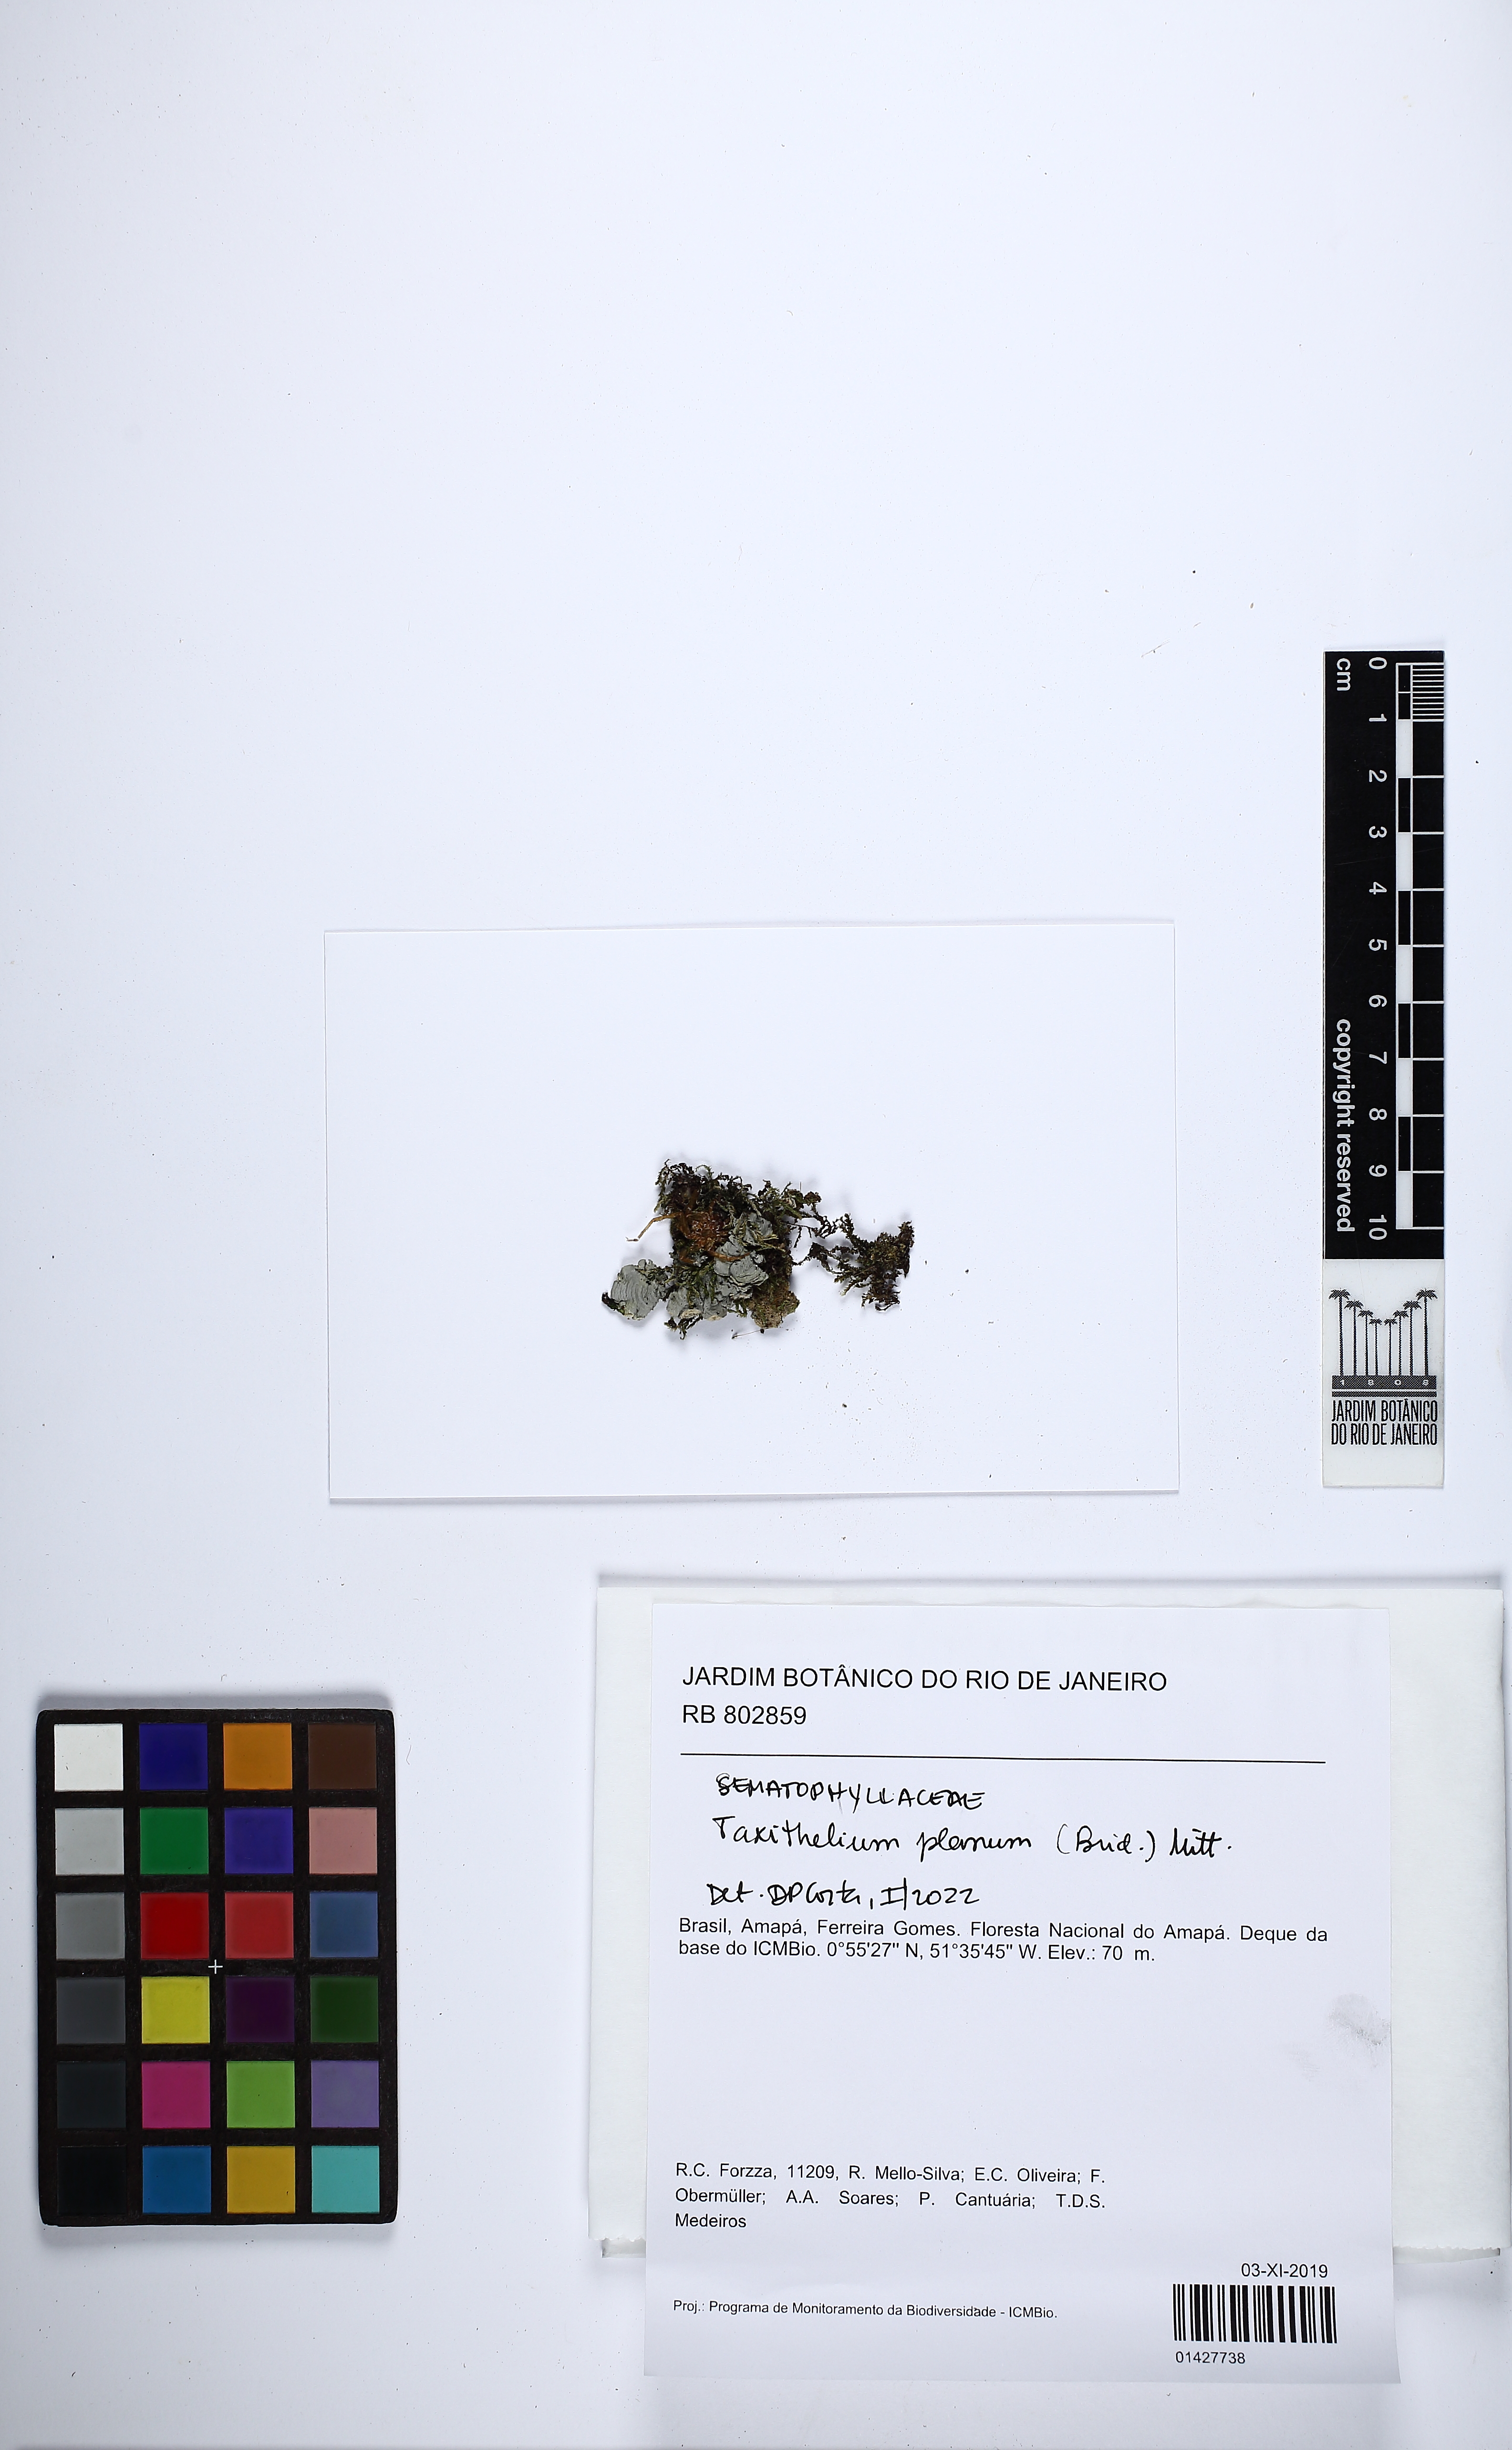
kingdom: Plantae
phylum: Bryophyta
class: Bryopsida
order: Hypnales
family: Pylaisiadelphaceae
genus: Taxithelium
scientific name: Taxithelium planum
